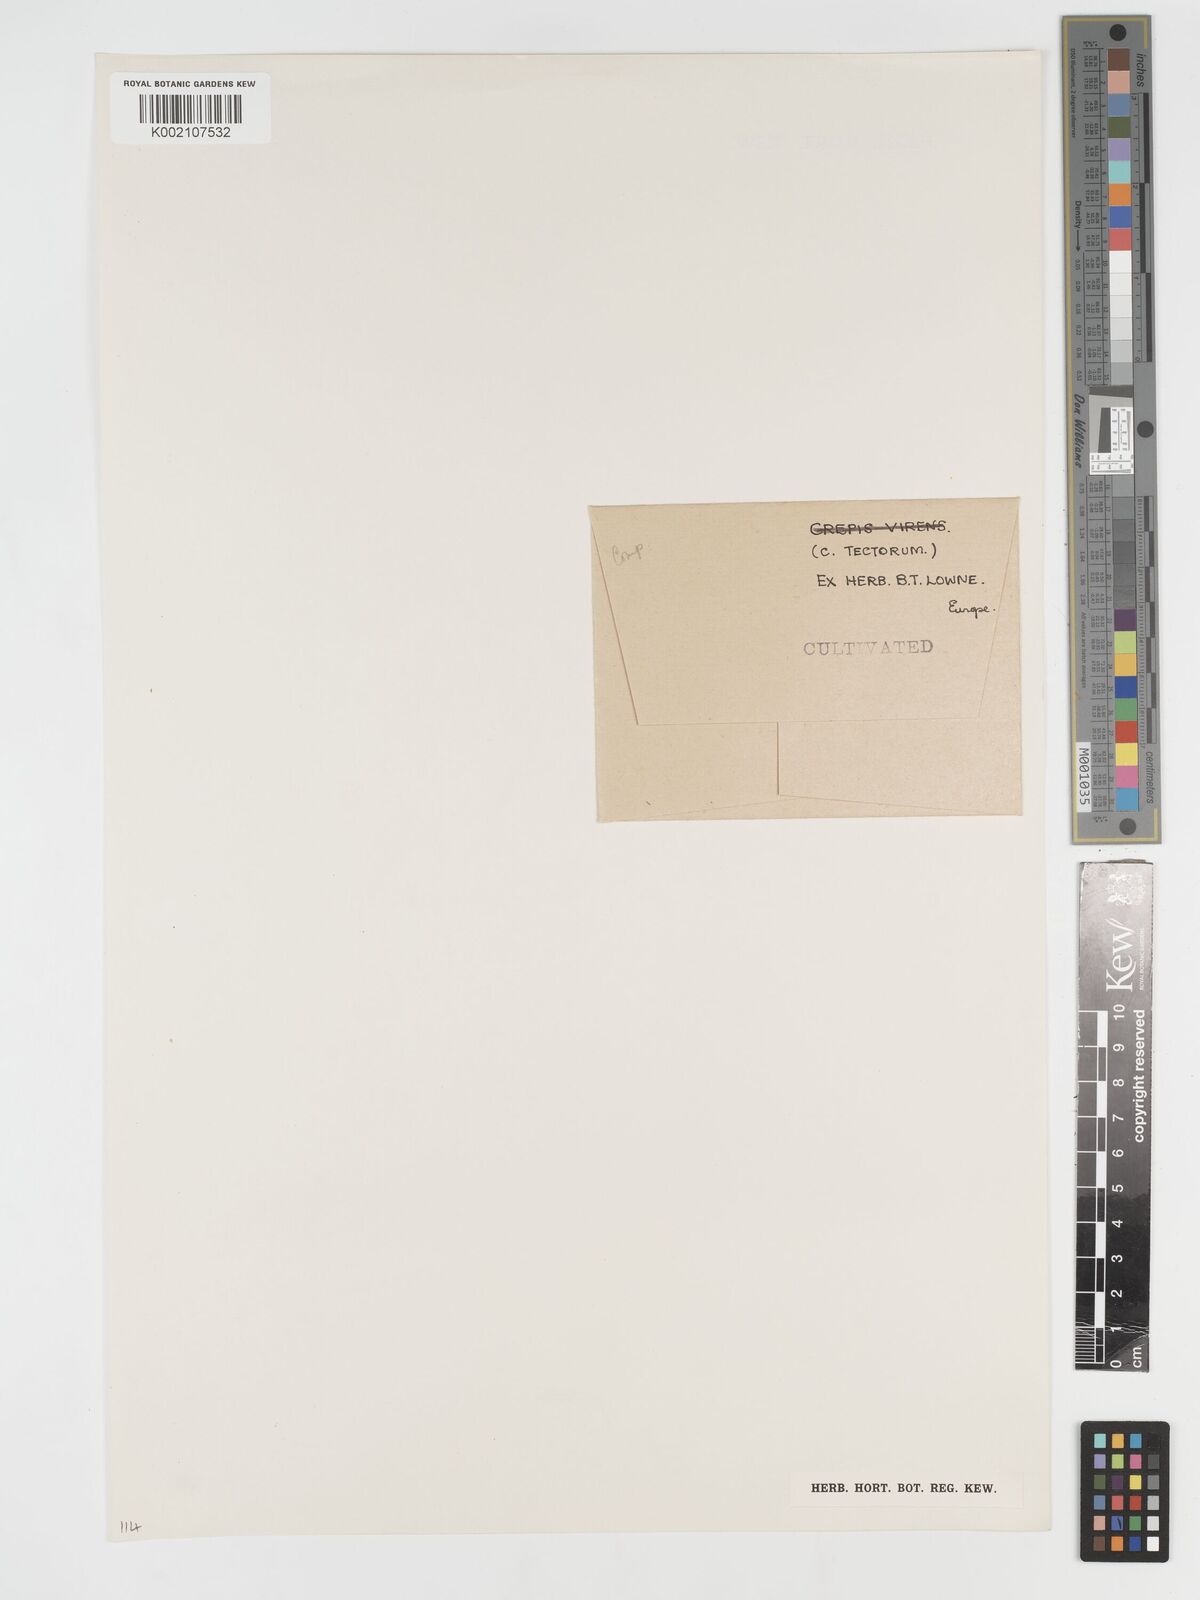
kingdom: Plantae
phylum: Tracheophyta
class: Magnoliopsida
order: Asterales
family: Asteraceae
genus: Crepis
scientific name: Crepis tectorum
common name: Narrow-leaved hawk's-beard
